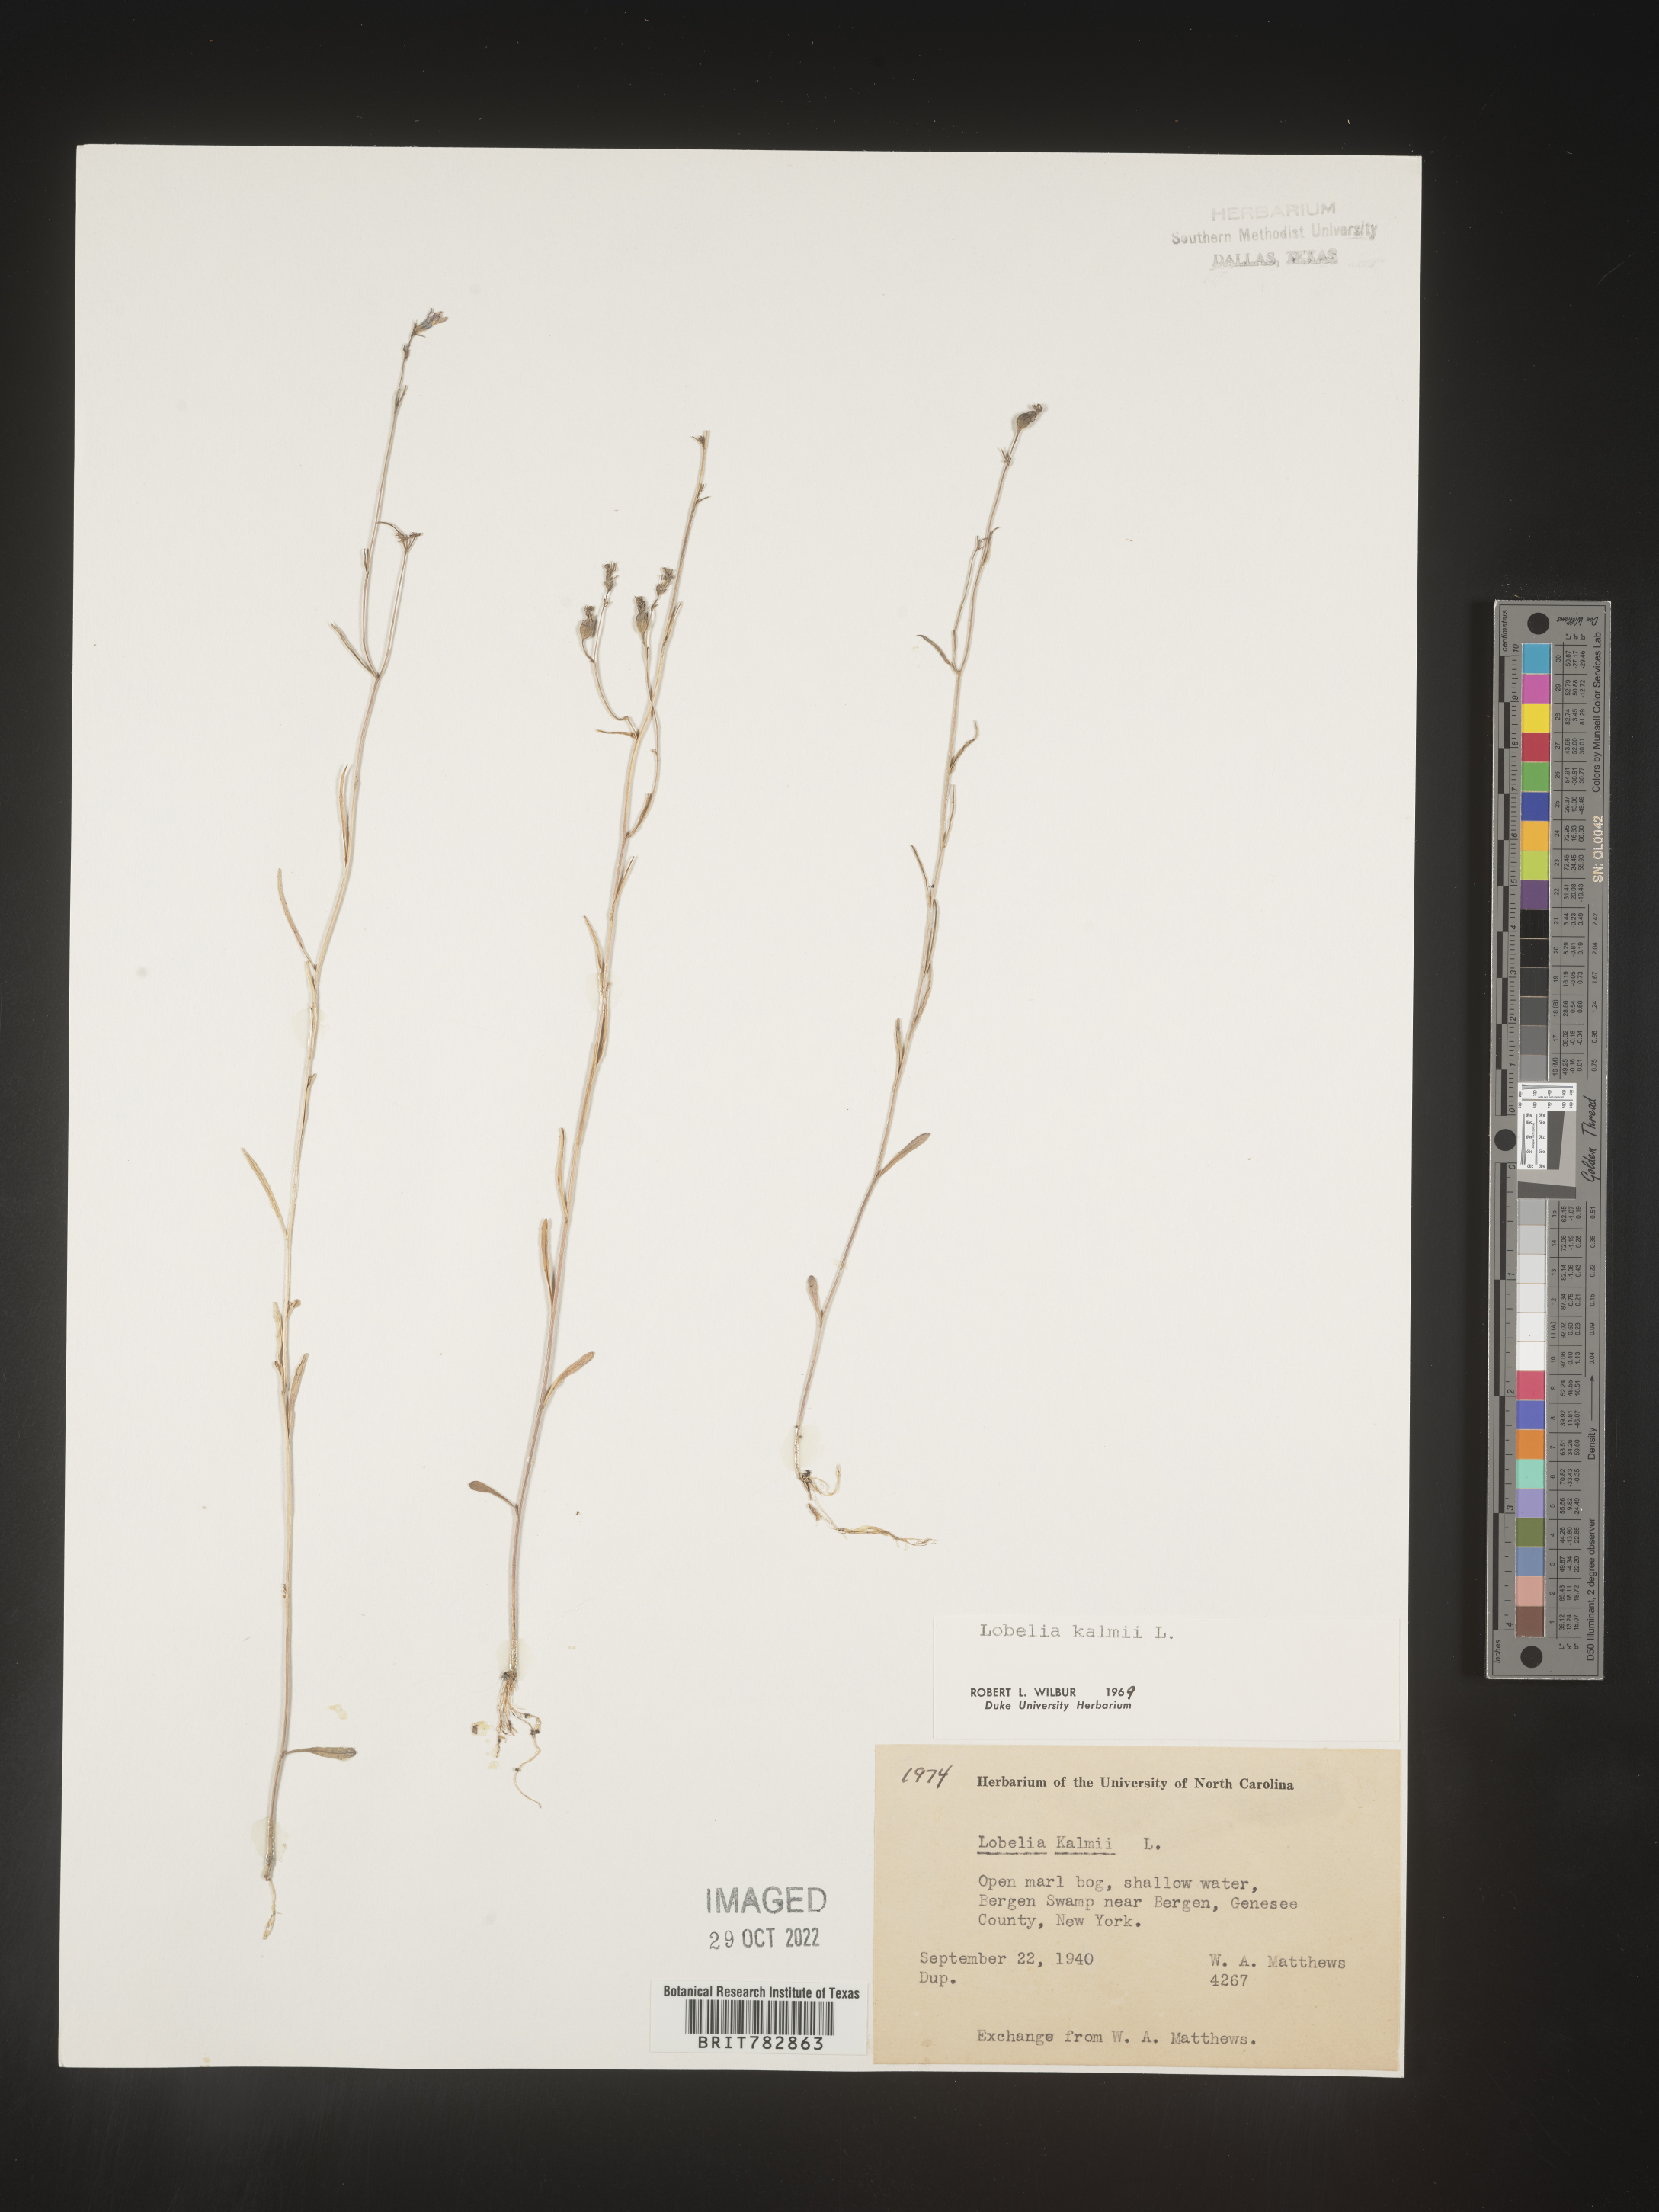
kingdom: Plantae
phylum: Tracheophyta
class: Magnoliopsida
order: Asterales
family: Campanulaceae
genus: Lobelia
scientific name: Lobelia
